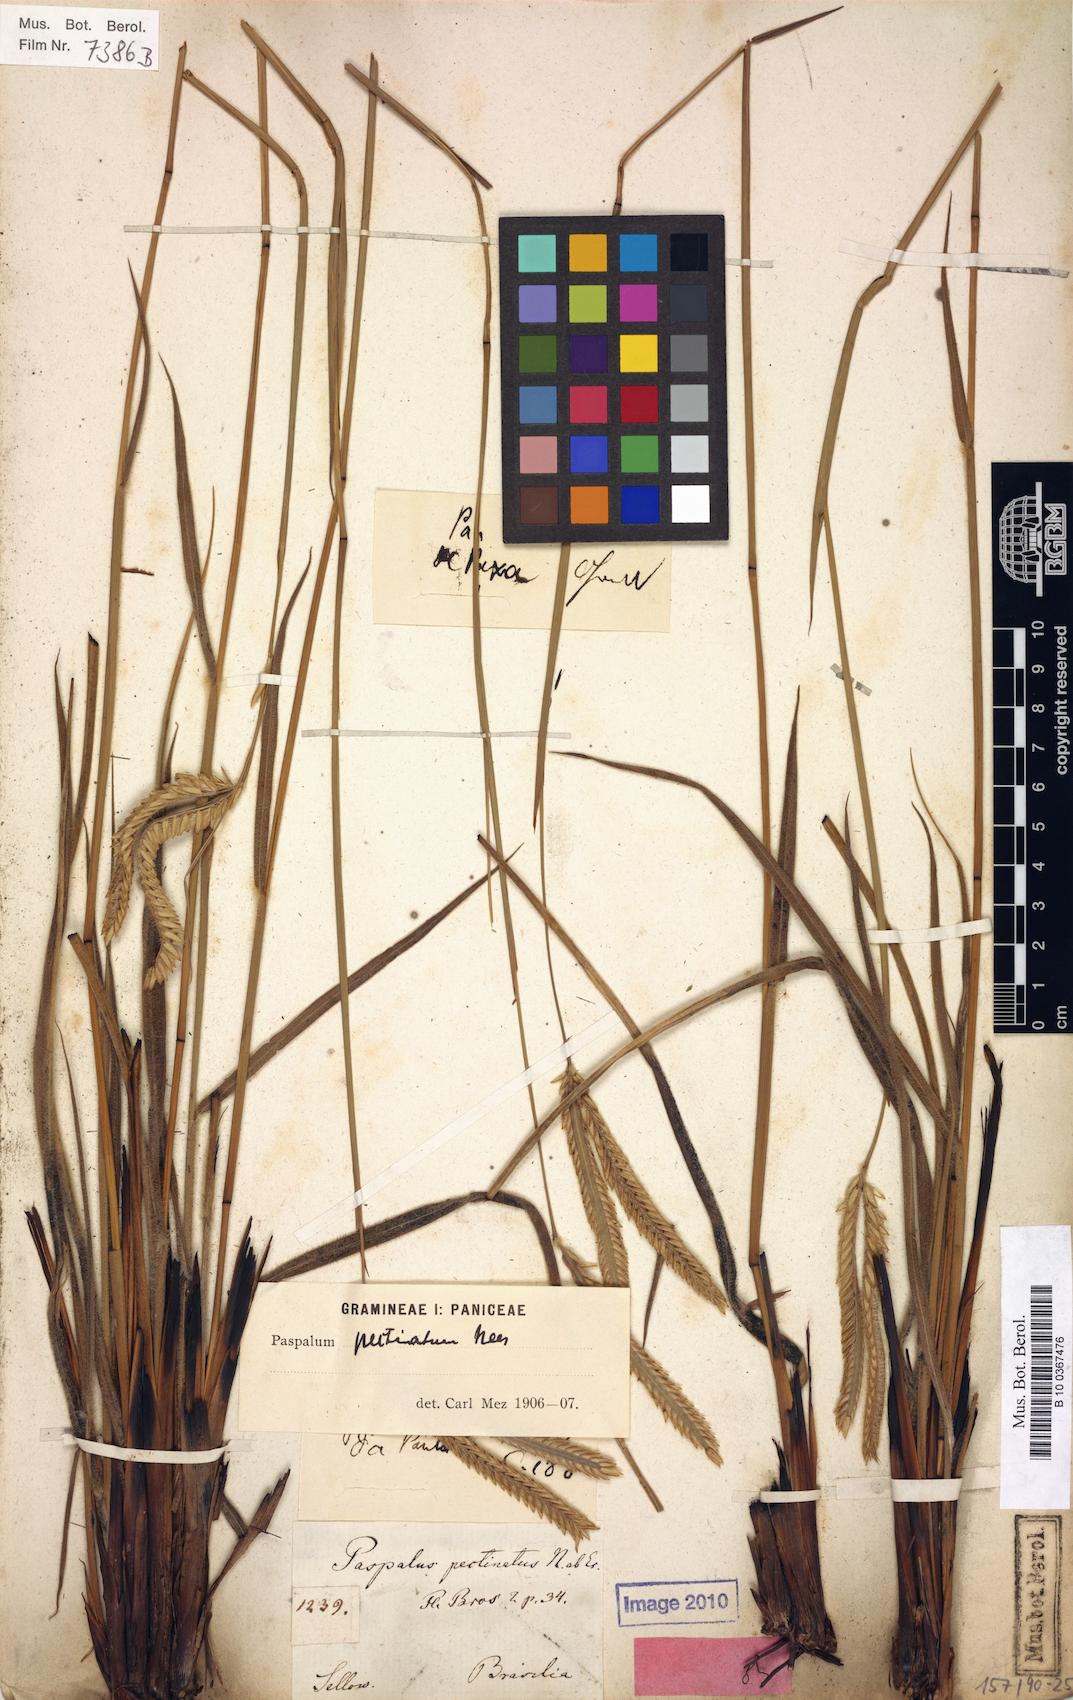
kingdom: Plantae
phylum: Tracheophyta
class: Liliopsida
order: Poales
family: Poaceae
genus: Paspalum
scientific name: Paspalum pectinatum
